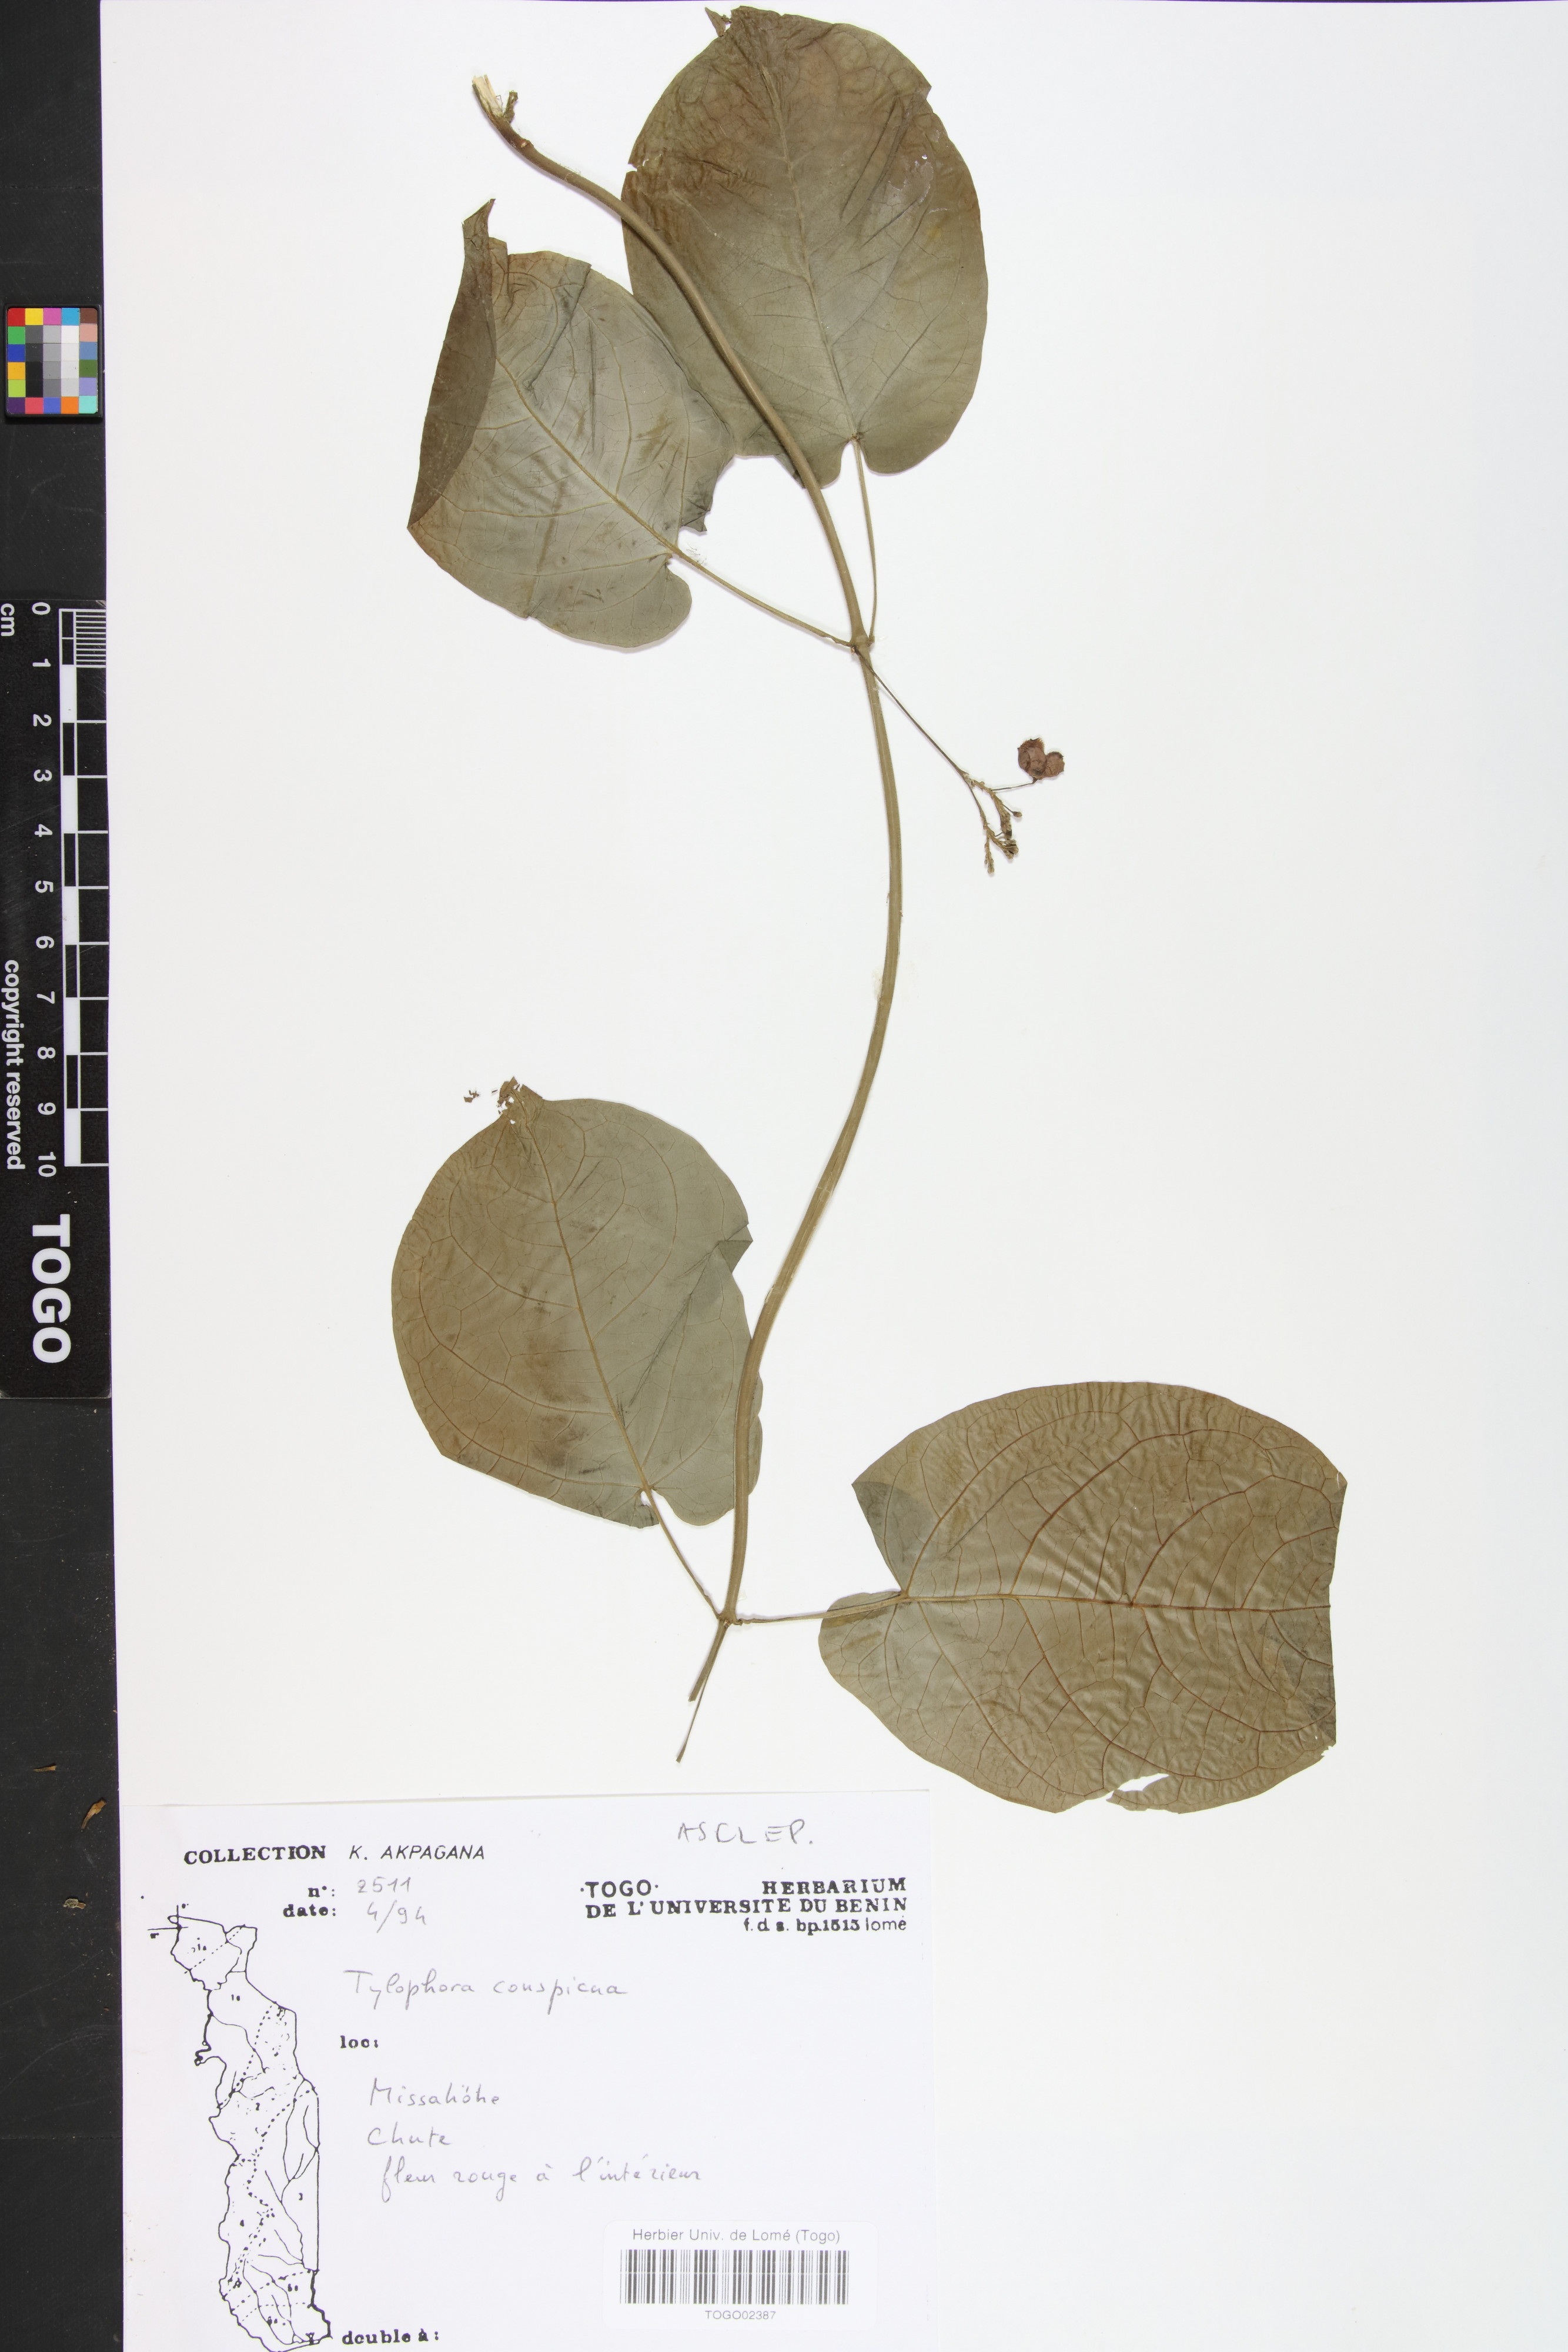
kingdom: Plantae
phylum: Tracheophyta
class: Magnoliopsida
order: Gentianales
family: Apocynaceae
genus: Vincetoxicum
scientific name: Vincetoxicum conspicuum
